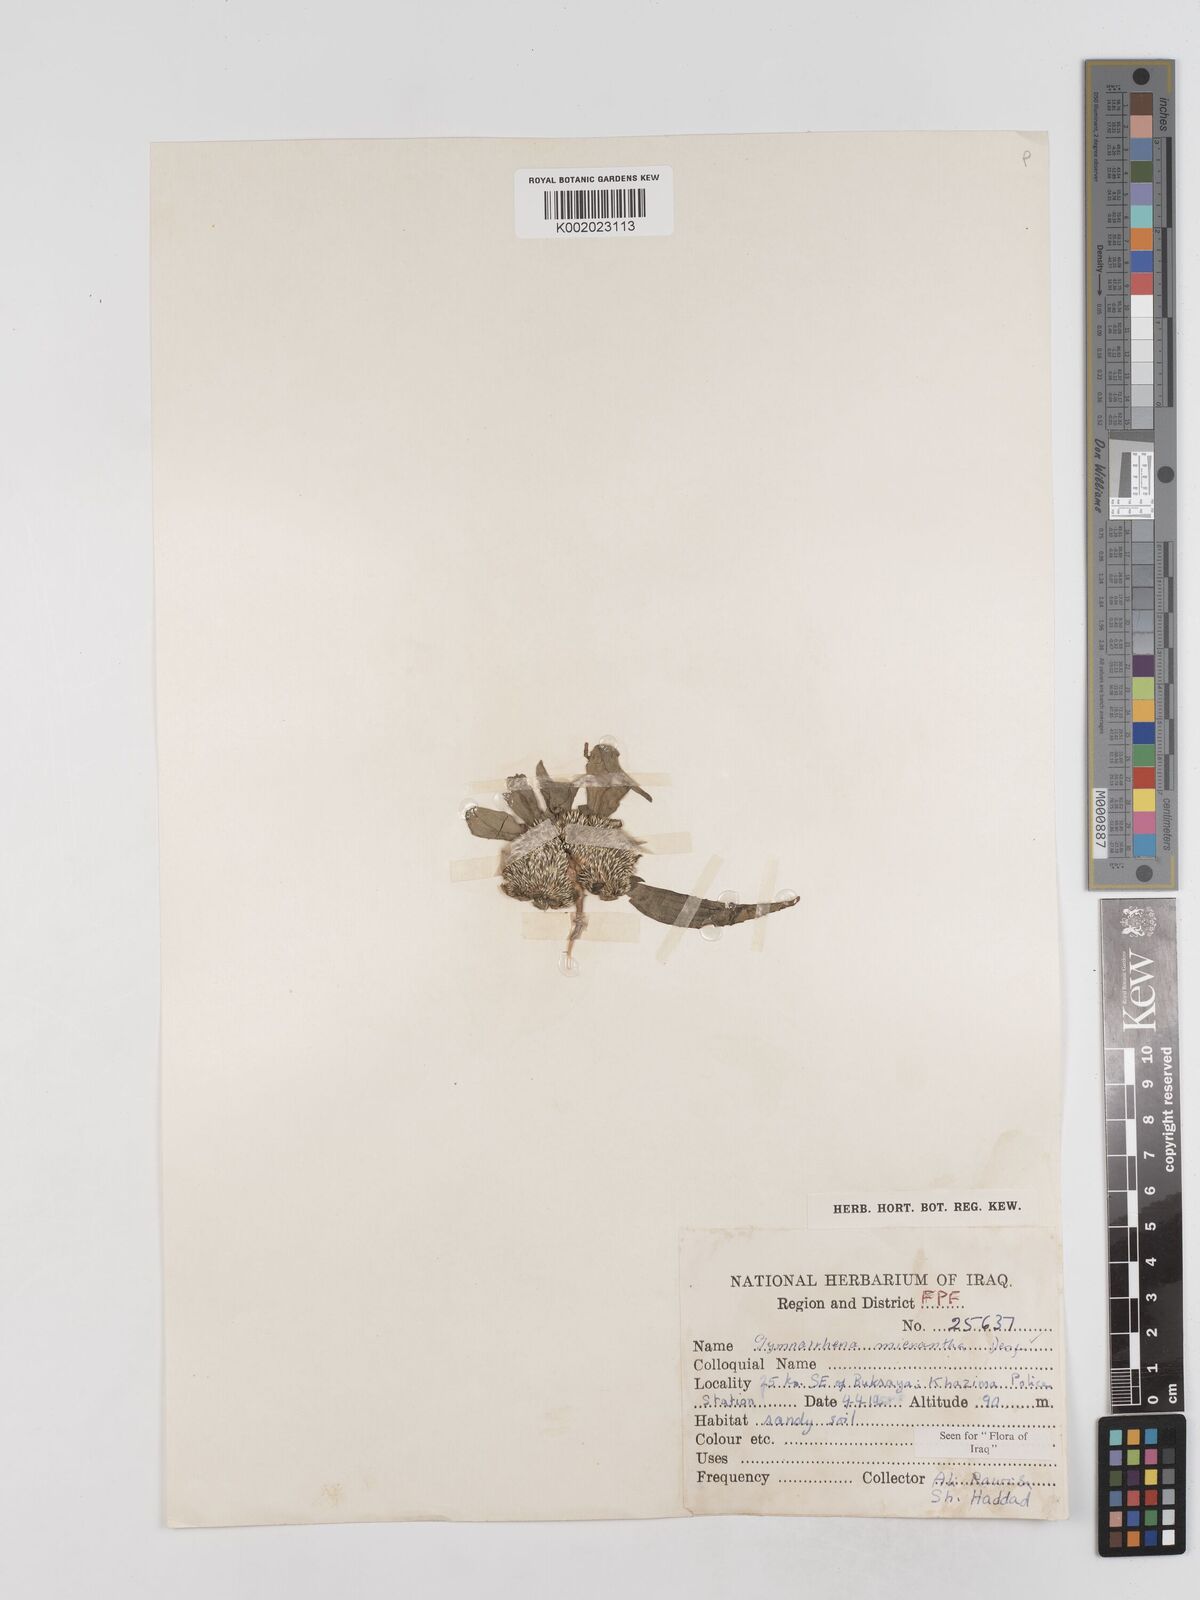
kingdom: Plantae
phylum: Tracheophyta
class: Magnoliopsida
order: Asterales
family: Asteraceae
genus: Gymnarrhena
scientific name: Gymnarrhena micrantha
